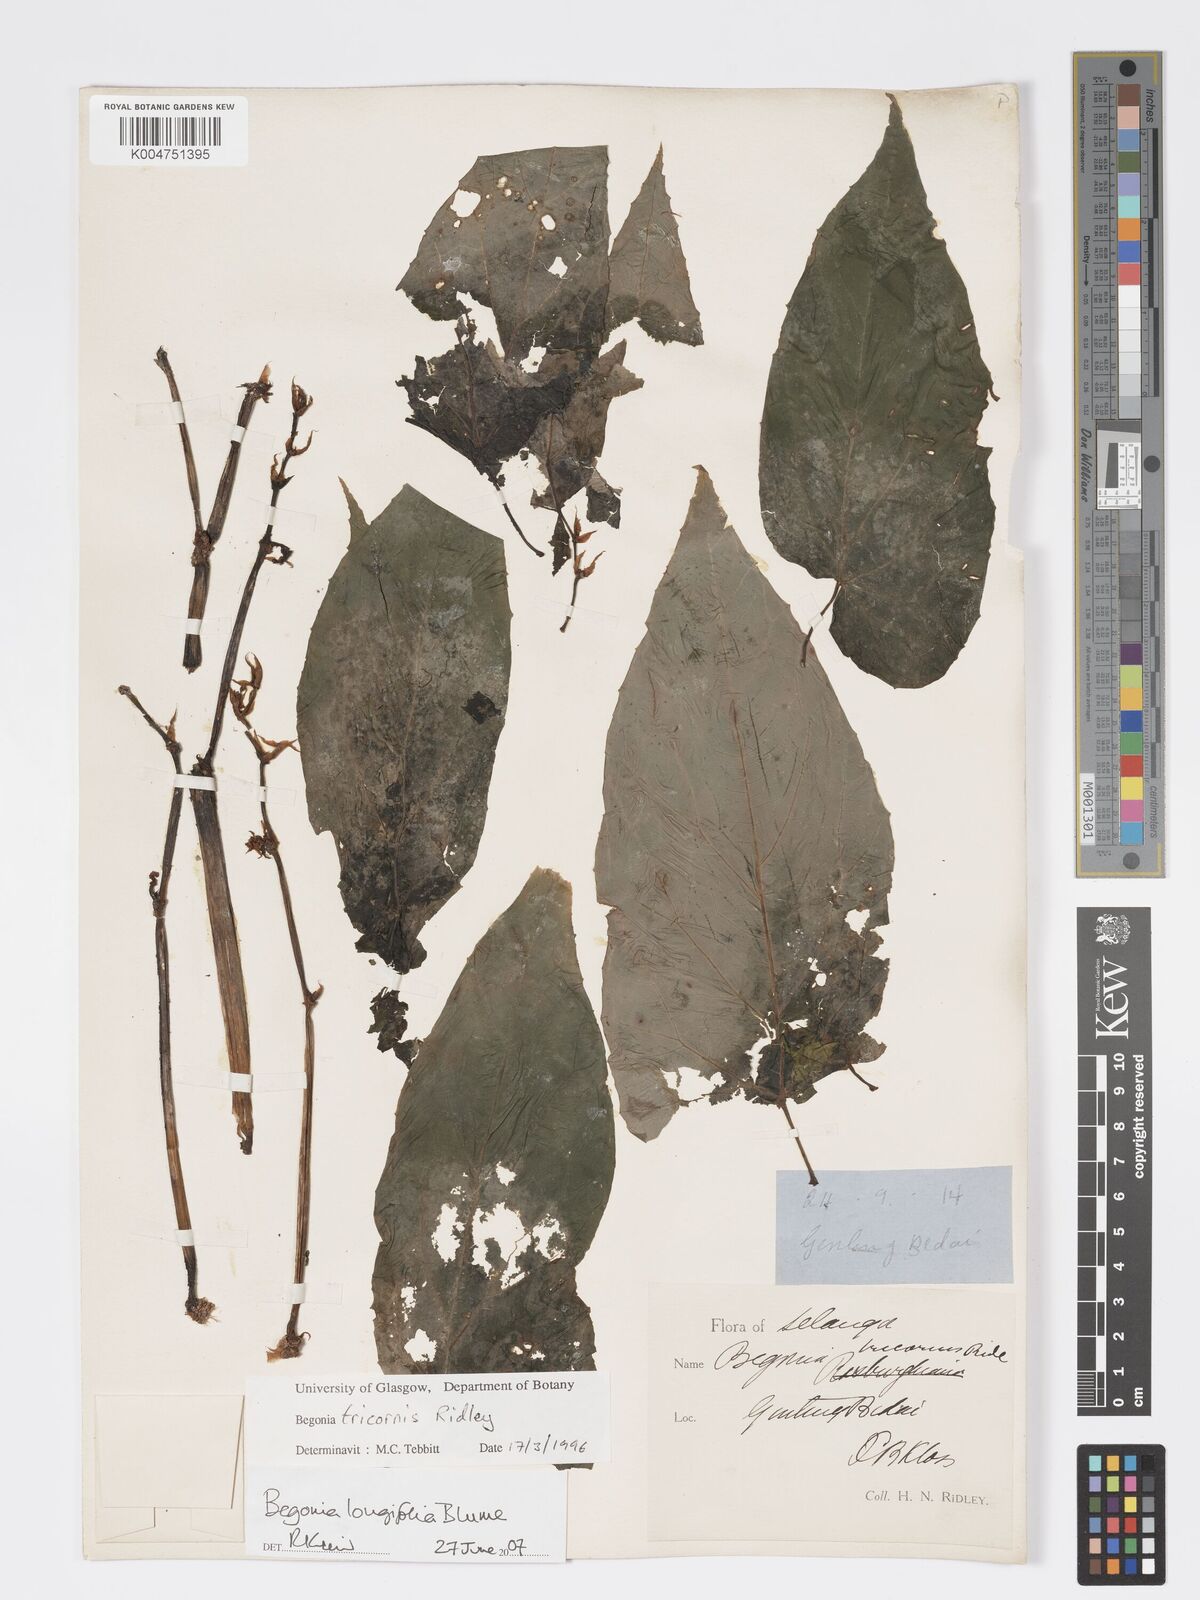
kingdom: Plantae
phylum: Tracheophyta
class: Magnoliopsida
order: Cucurbitales
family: Begoniaceae
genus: Begonia
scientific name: Begonia longifolia
